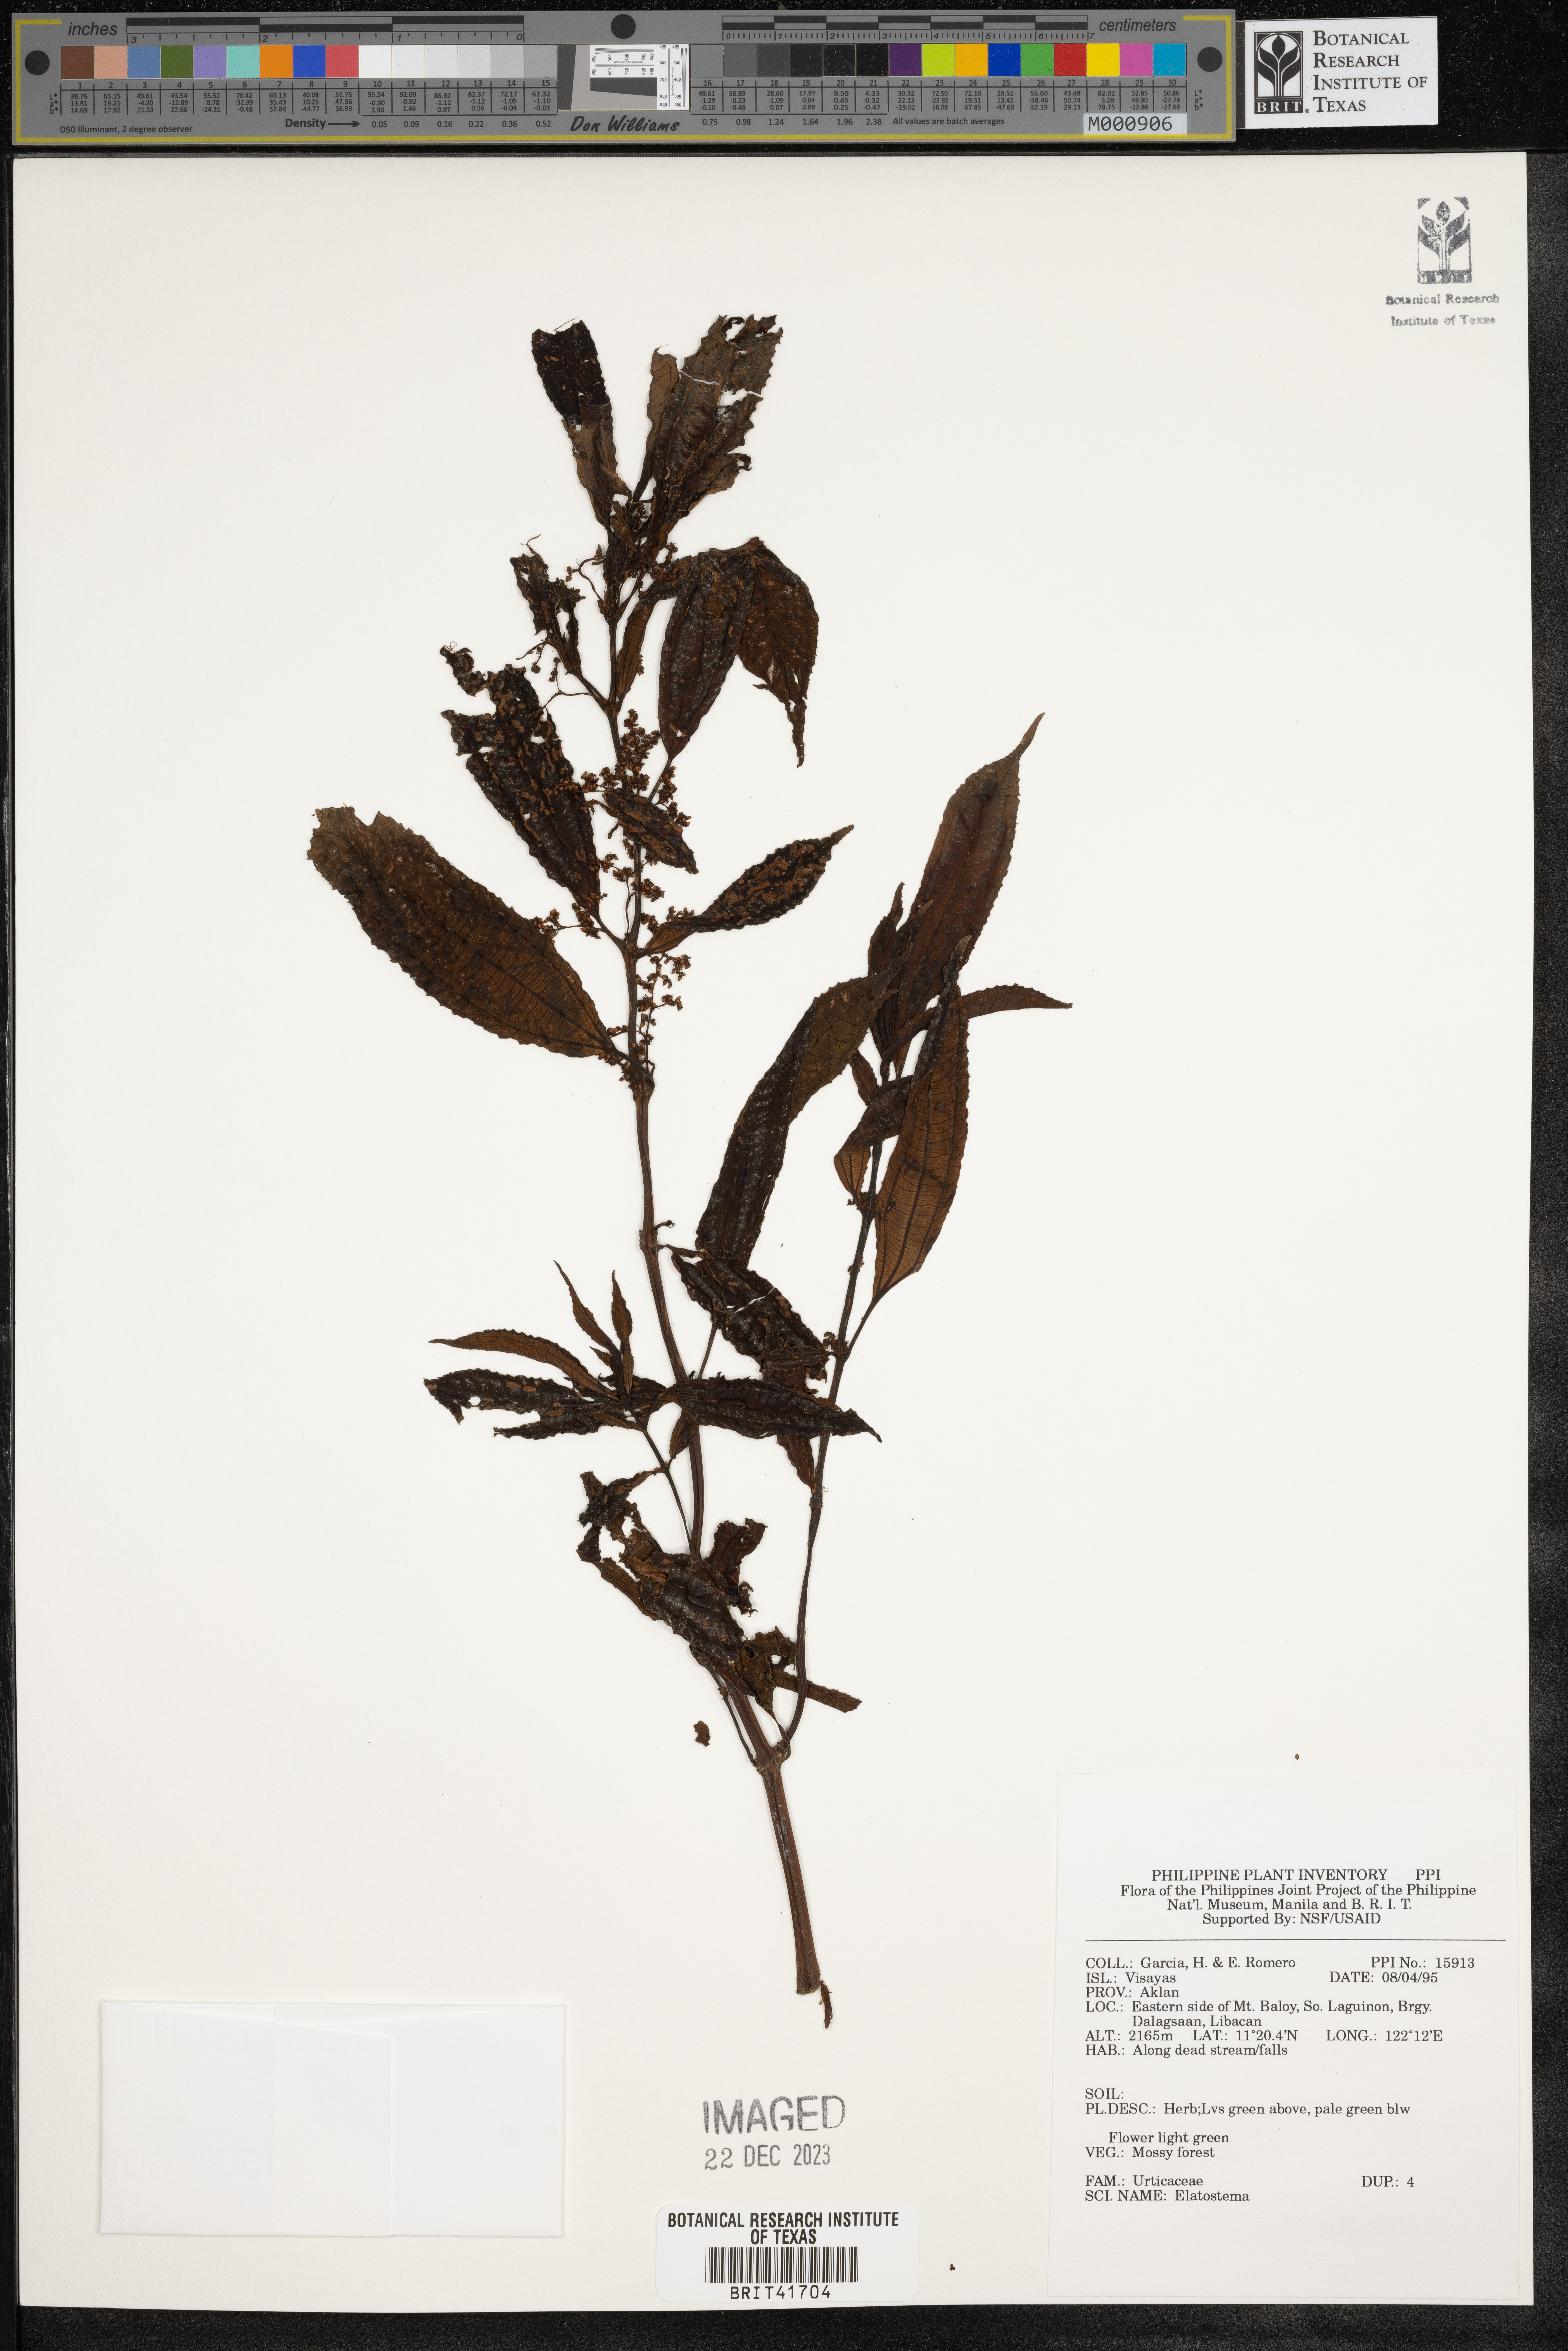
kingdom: Plantae
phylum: Tracheophyta
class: Magnoliopsida
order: Rosales
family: Urticaceae
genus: Elatostema
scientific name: Elatostema
